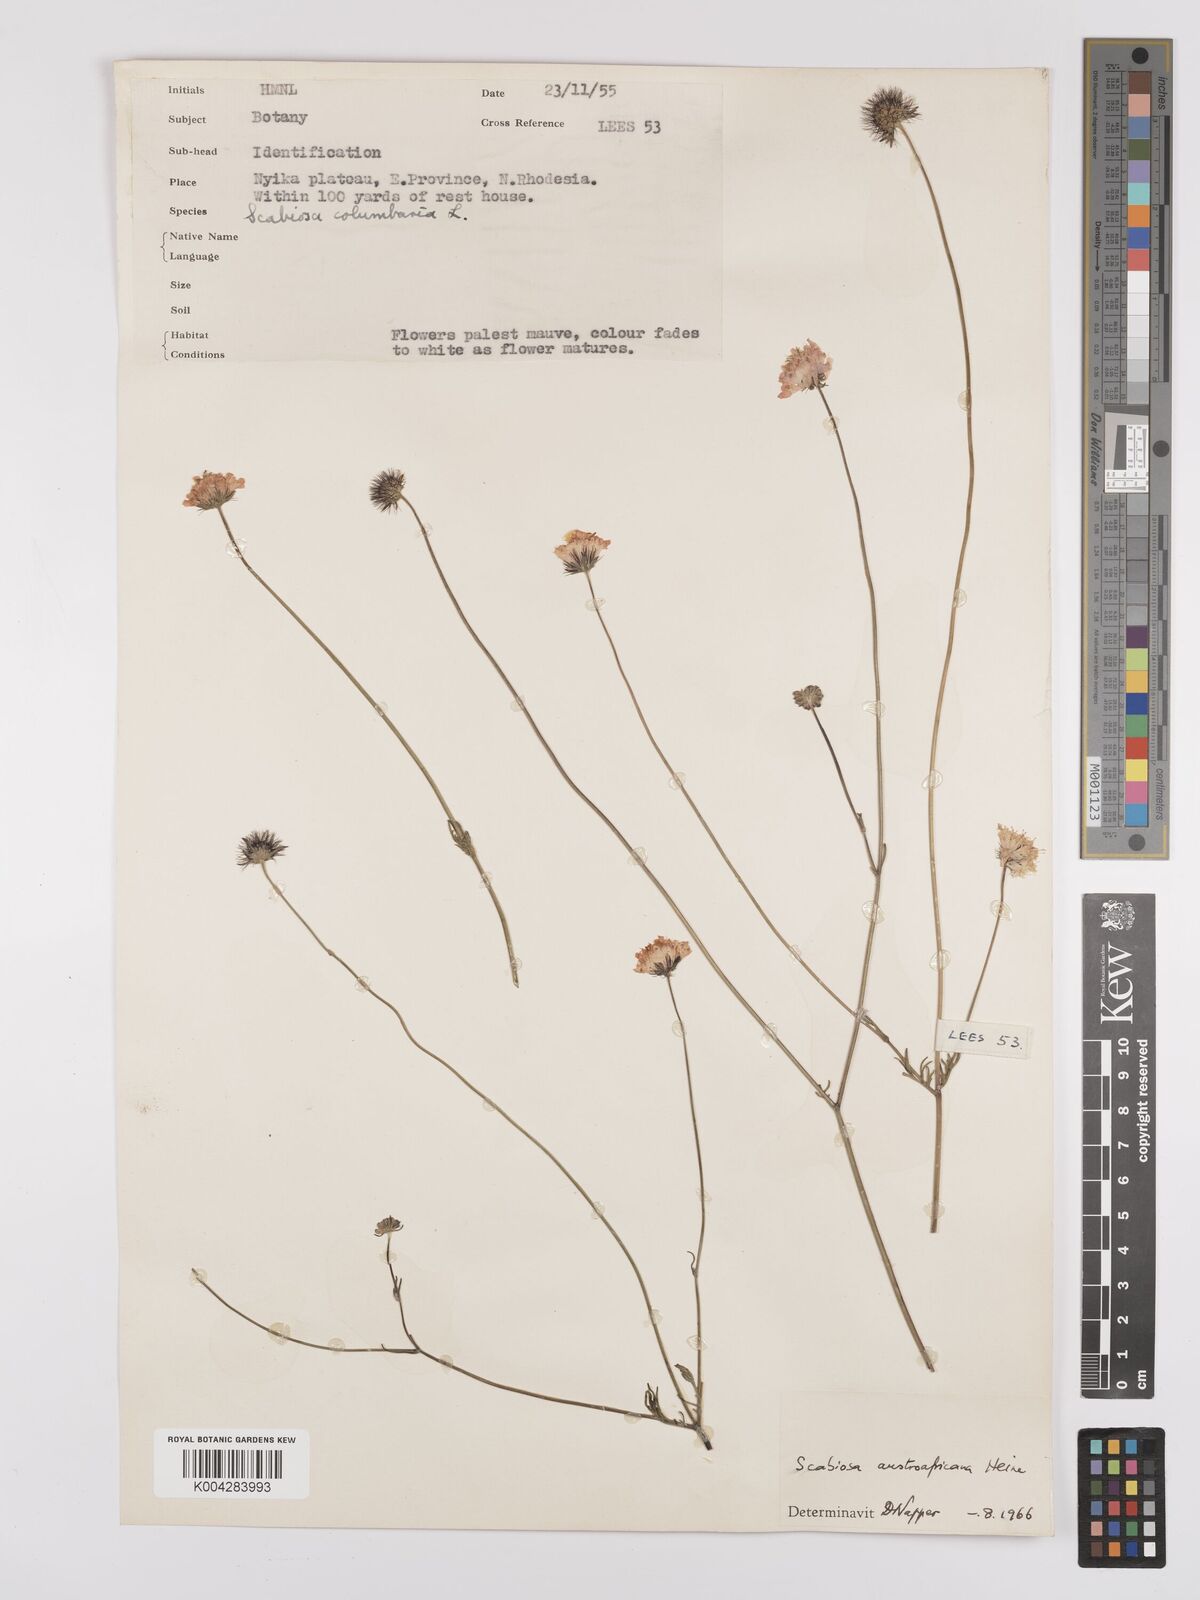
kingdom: Plantae
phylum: Tracheophyta
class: Magnoliopsida
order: Dipsacales
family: Caprifoliaceae
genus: Scabiosa
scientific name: Scabiosa austroafricana
